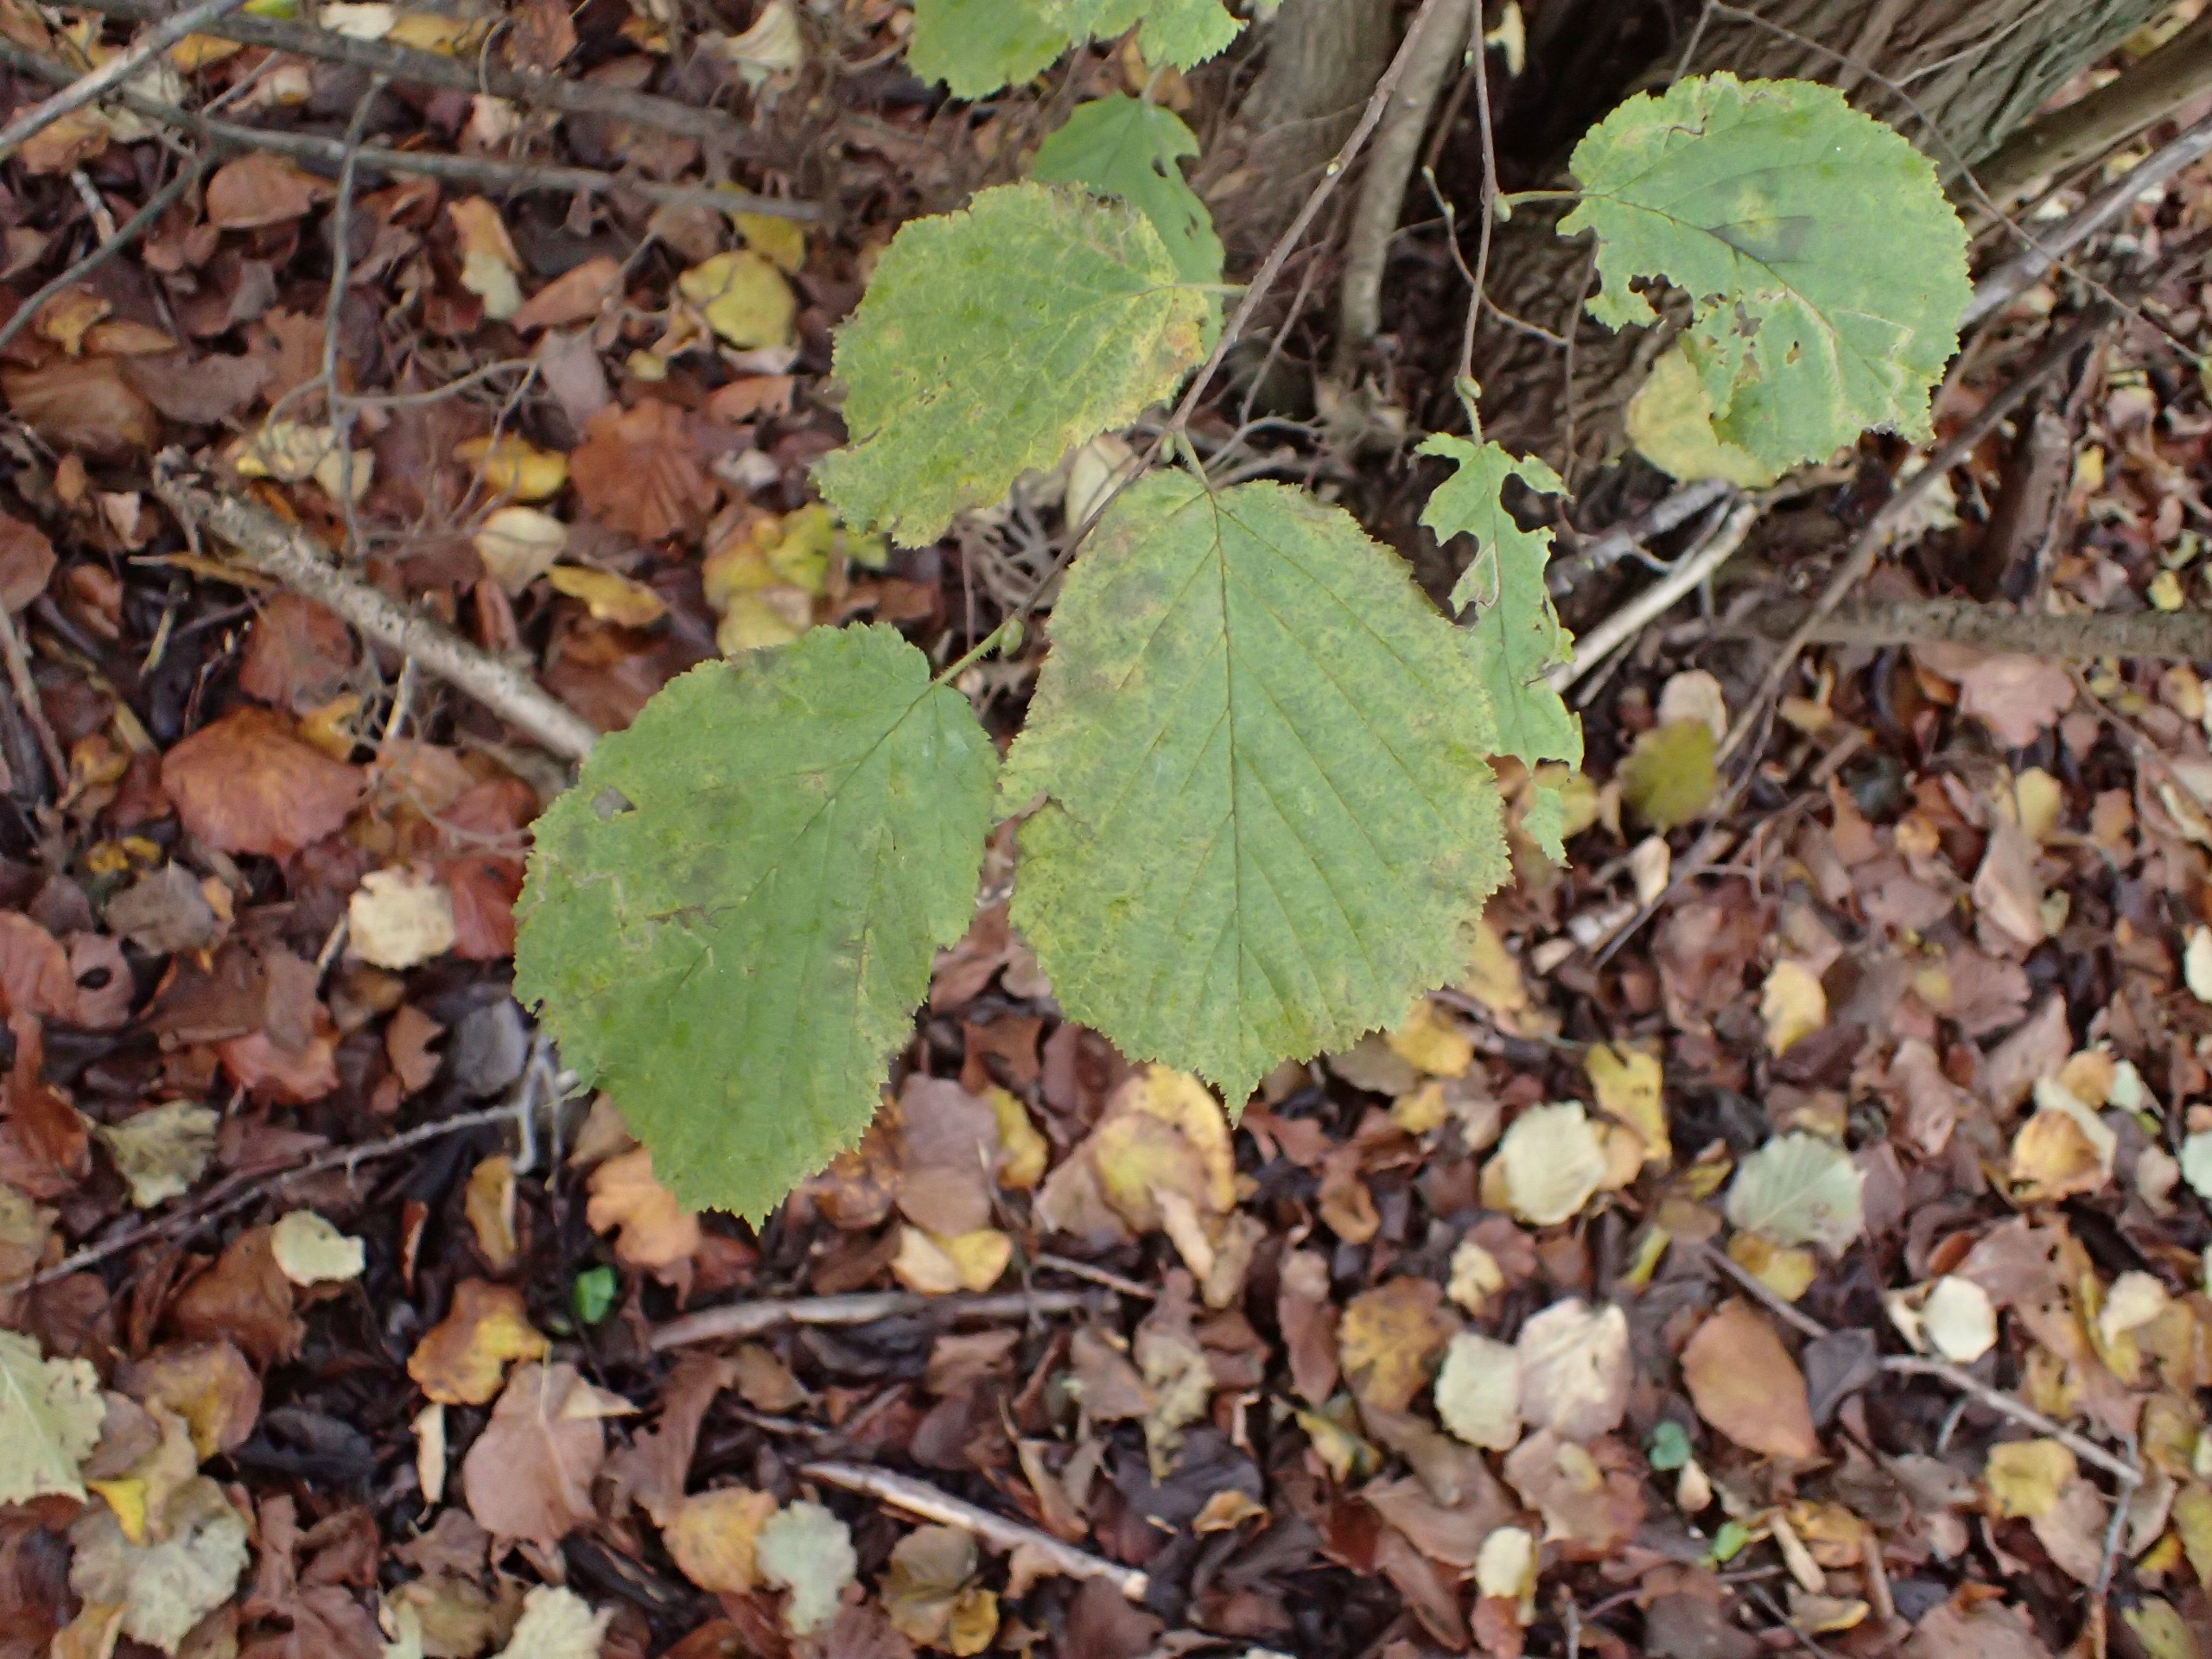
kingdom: Plantae
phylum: Tracheophyta
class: Magnoliopsida
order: Fagales
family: Betulaceae
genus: Corylus
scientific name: Corylus avellana
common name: Hassel
